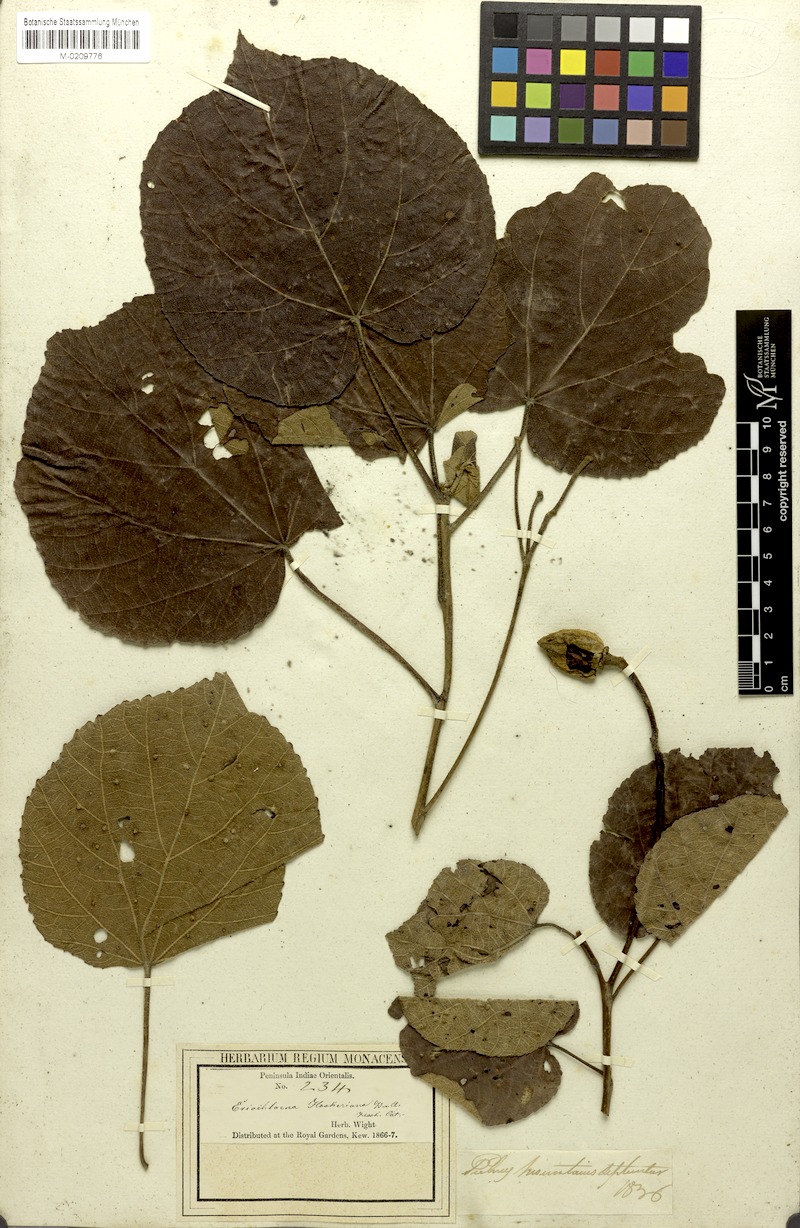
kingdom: Plantae
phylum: Tracheophyta
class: Magnoliopsida
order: Malvales
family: Malvaceae
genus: Eriolaena
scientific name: Eriolaena hookeriana
